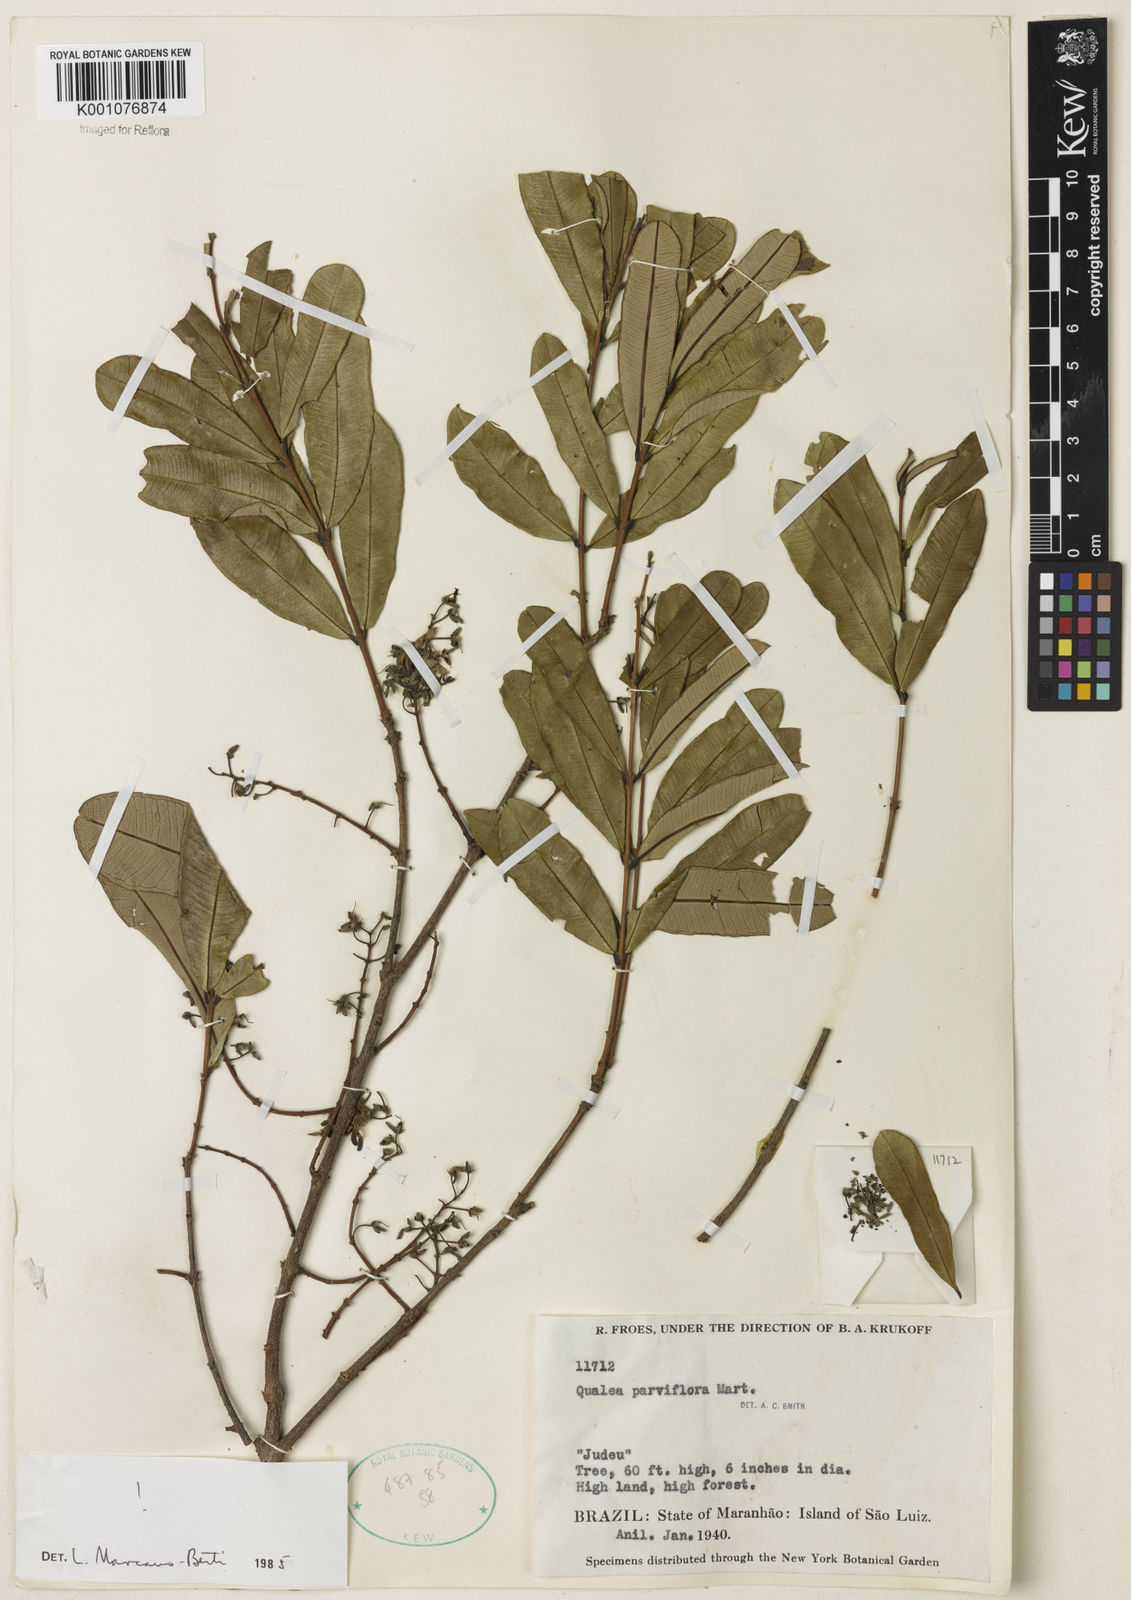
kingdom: Plantae
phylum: Tracheophyta
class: Magnoliopsida
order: Myrtales
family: Vochysiaceae
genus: Qualea
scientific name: Qualea parviflora
